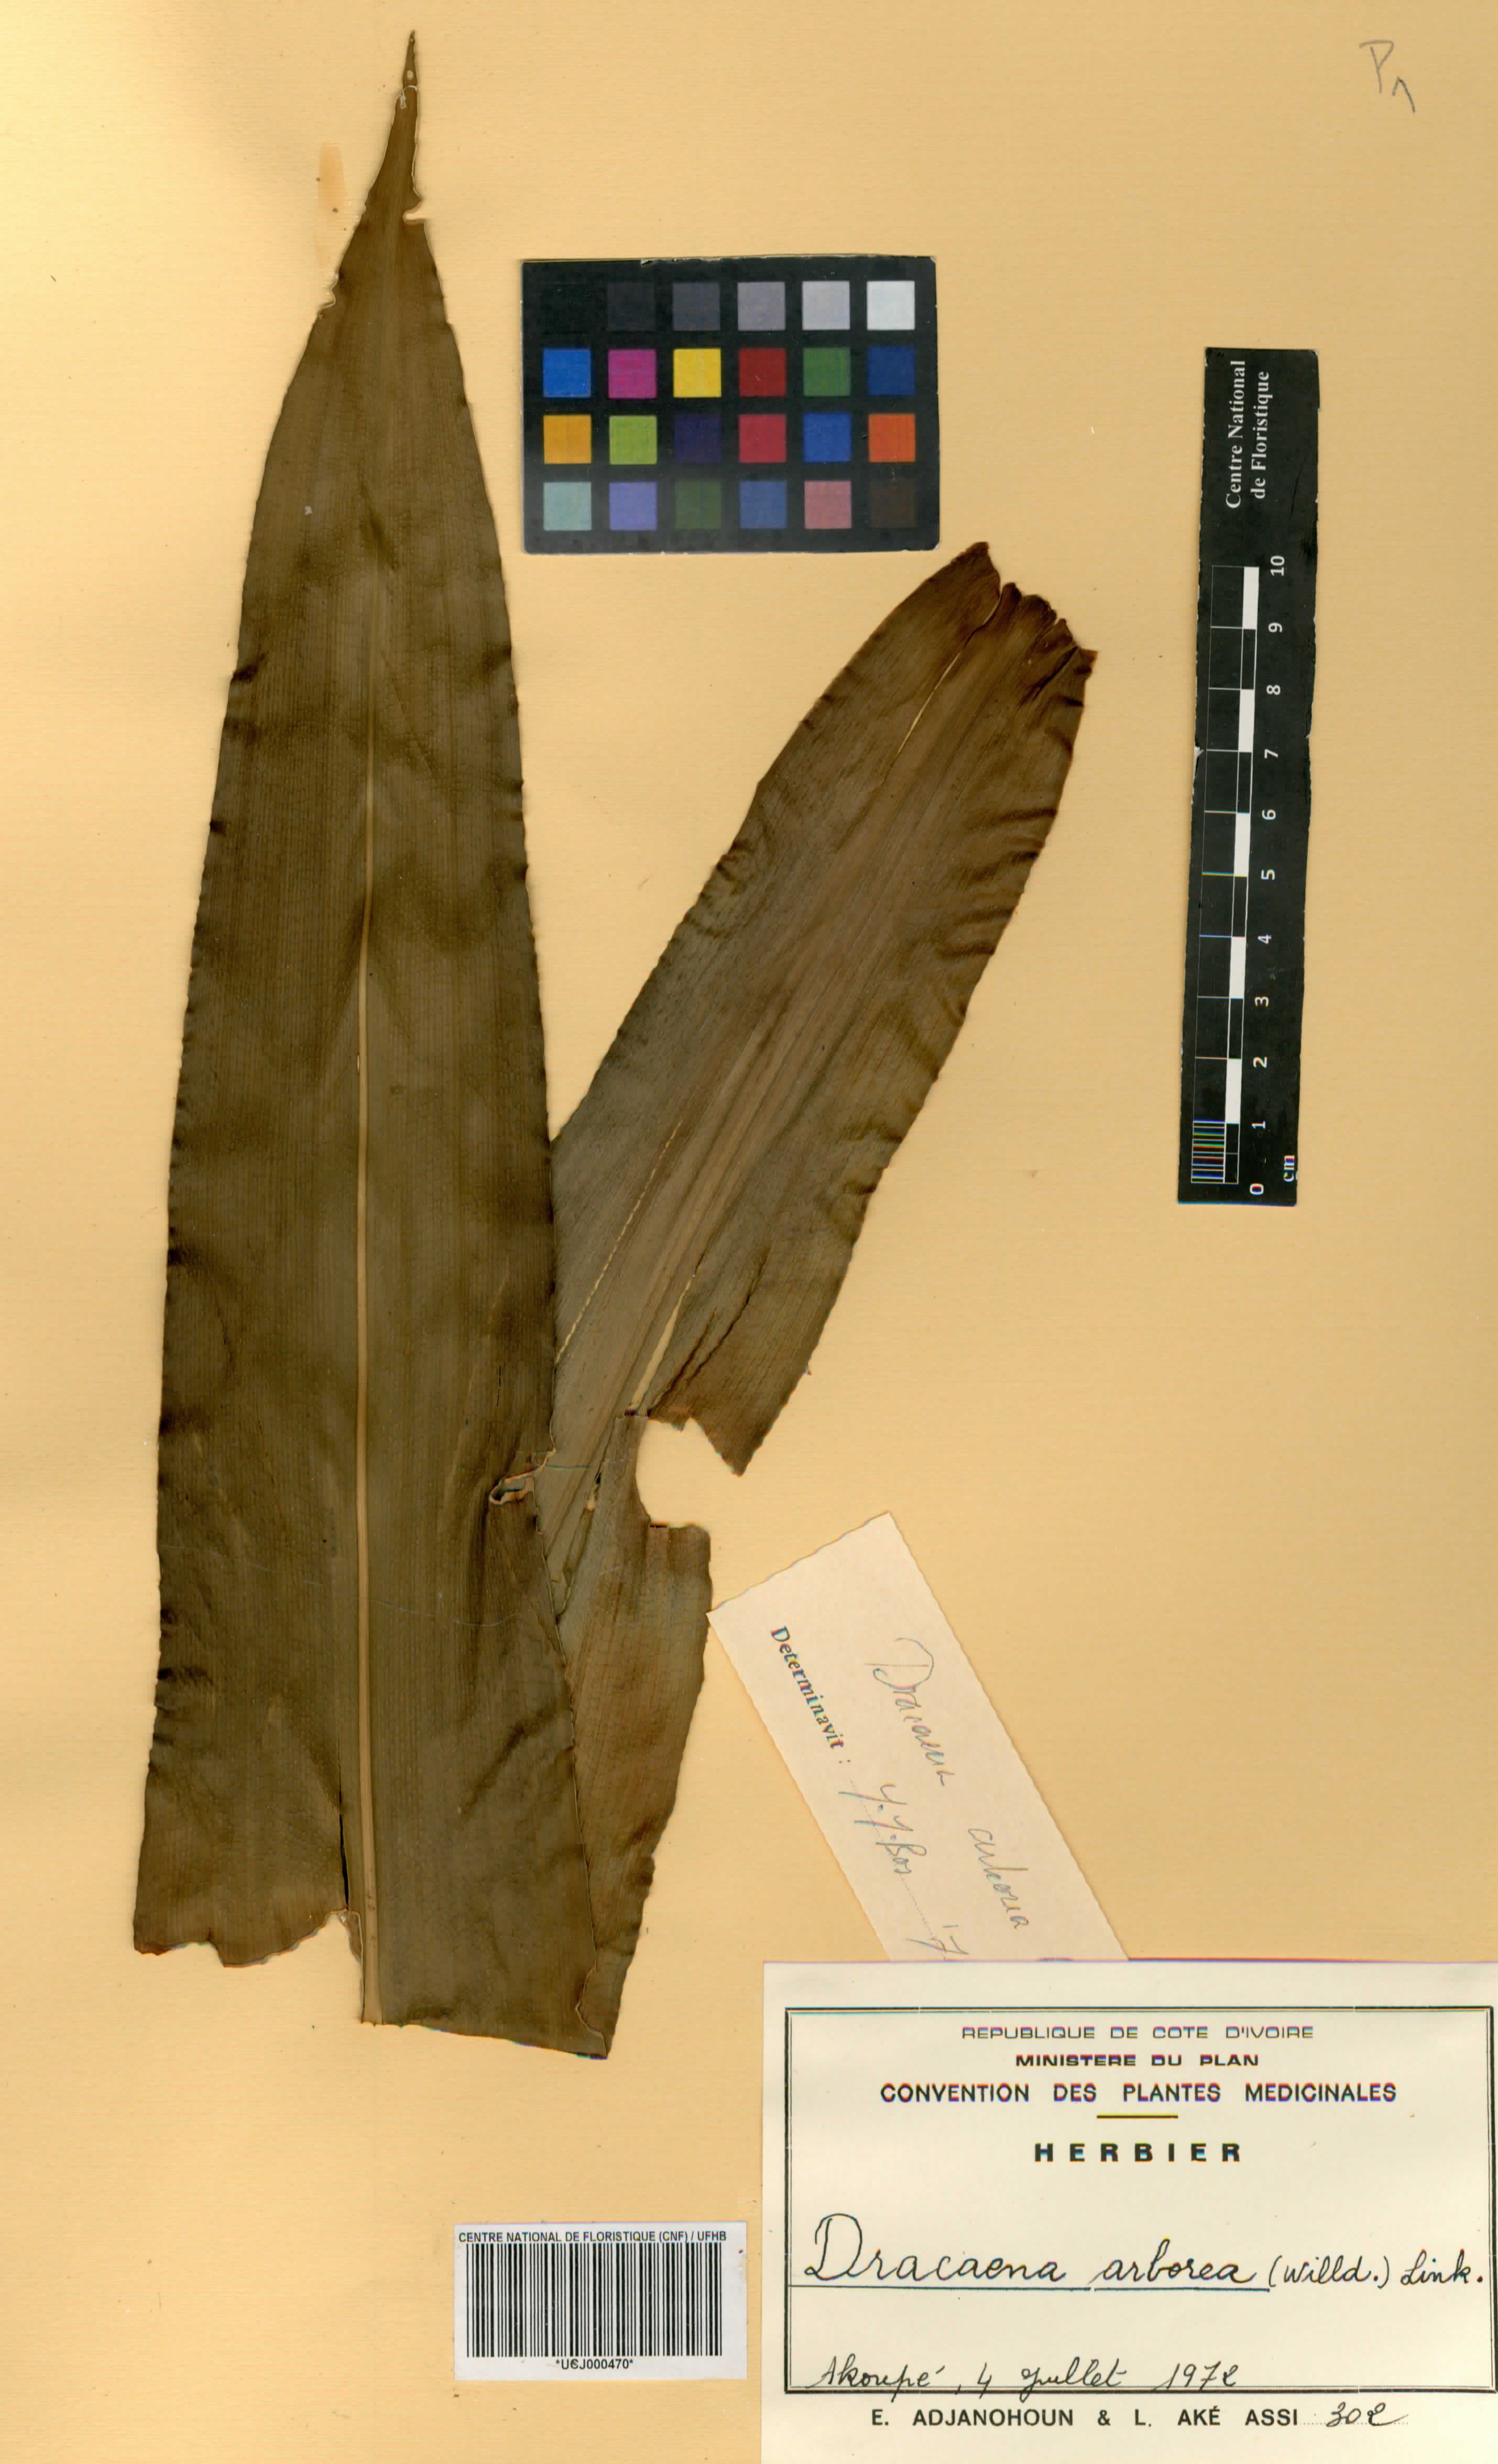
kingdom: Plantae
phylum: Tracheophyta
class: Liliopsida
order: Asparagales
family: Asparagaceae
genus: Dracaena
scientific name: Dracaena arborea
